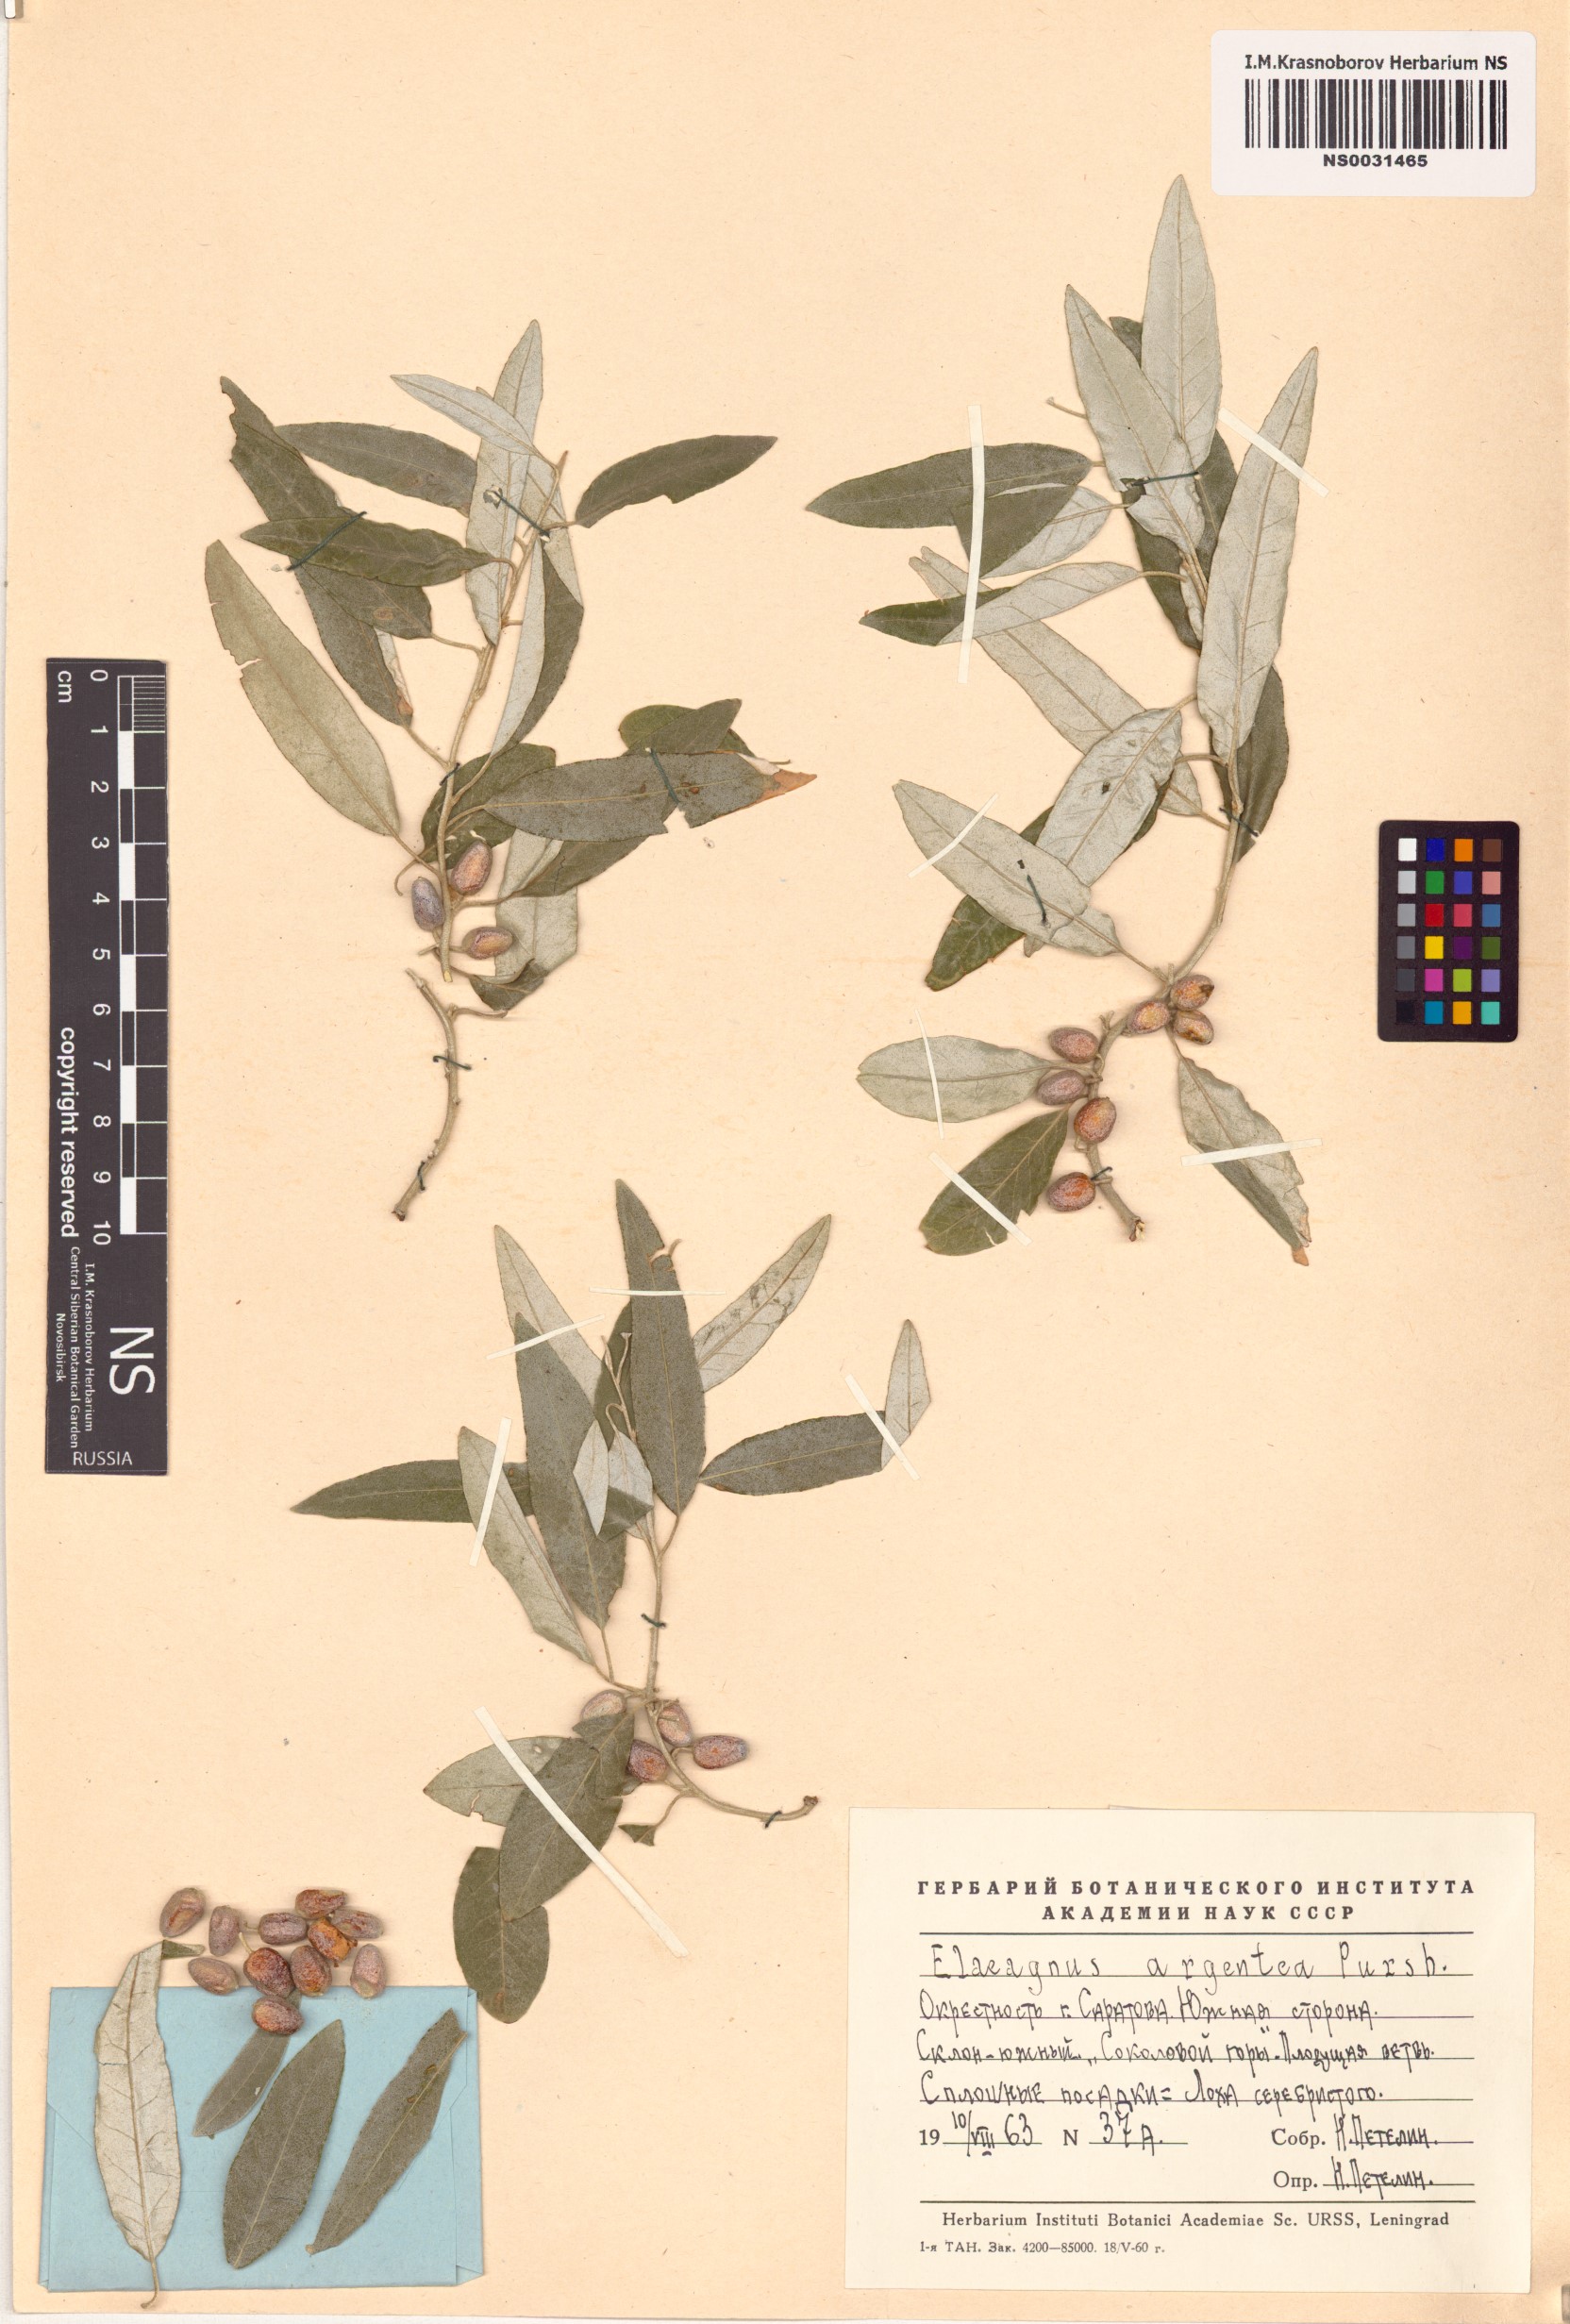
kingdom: Plantae
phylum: Tracheophyta
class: Magnoliopsida
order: Rosales
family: Elaeagnaceae
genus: Elaeagnus
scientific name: Elaeagnus commutata
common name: Silverberry
